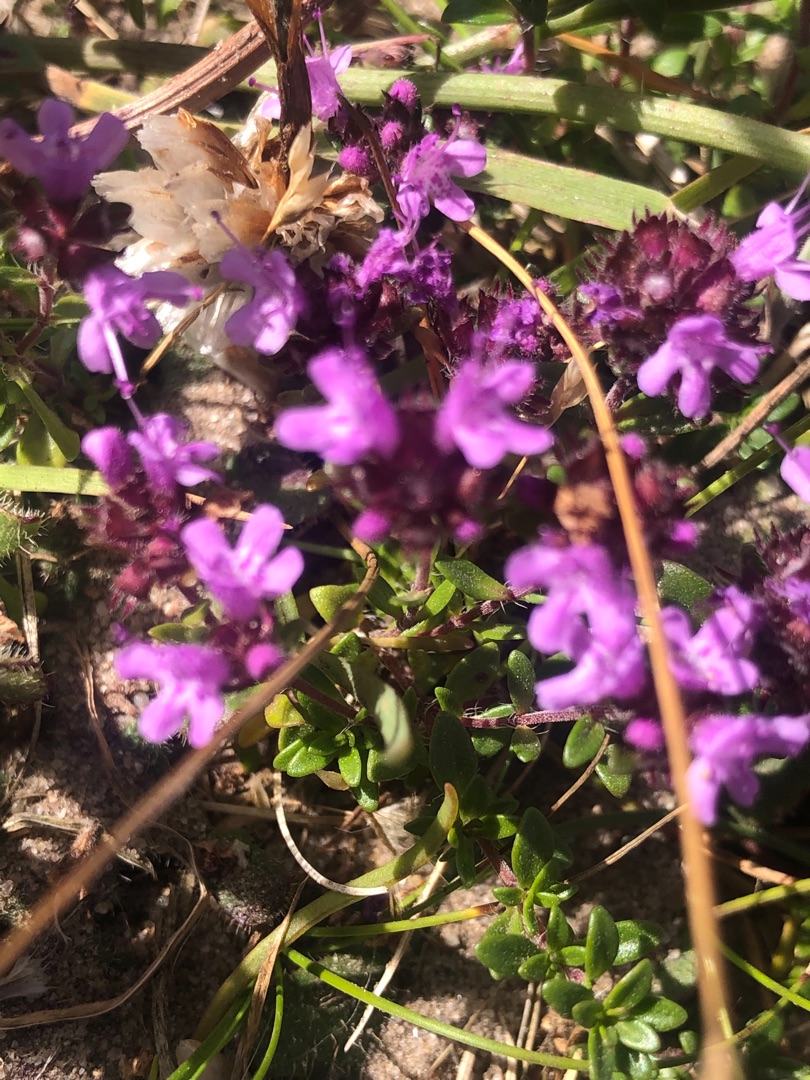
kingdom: Plantae
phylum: Tracheophyta
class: Magnoliopsida
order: Lamiales
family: Lamiaceae
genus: Thymus
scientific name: Thymus serpyllum
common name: Smalbladet timian
